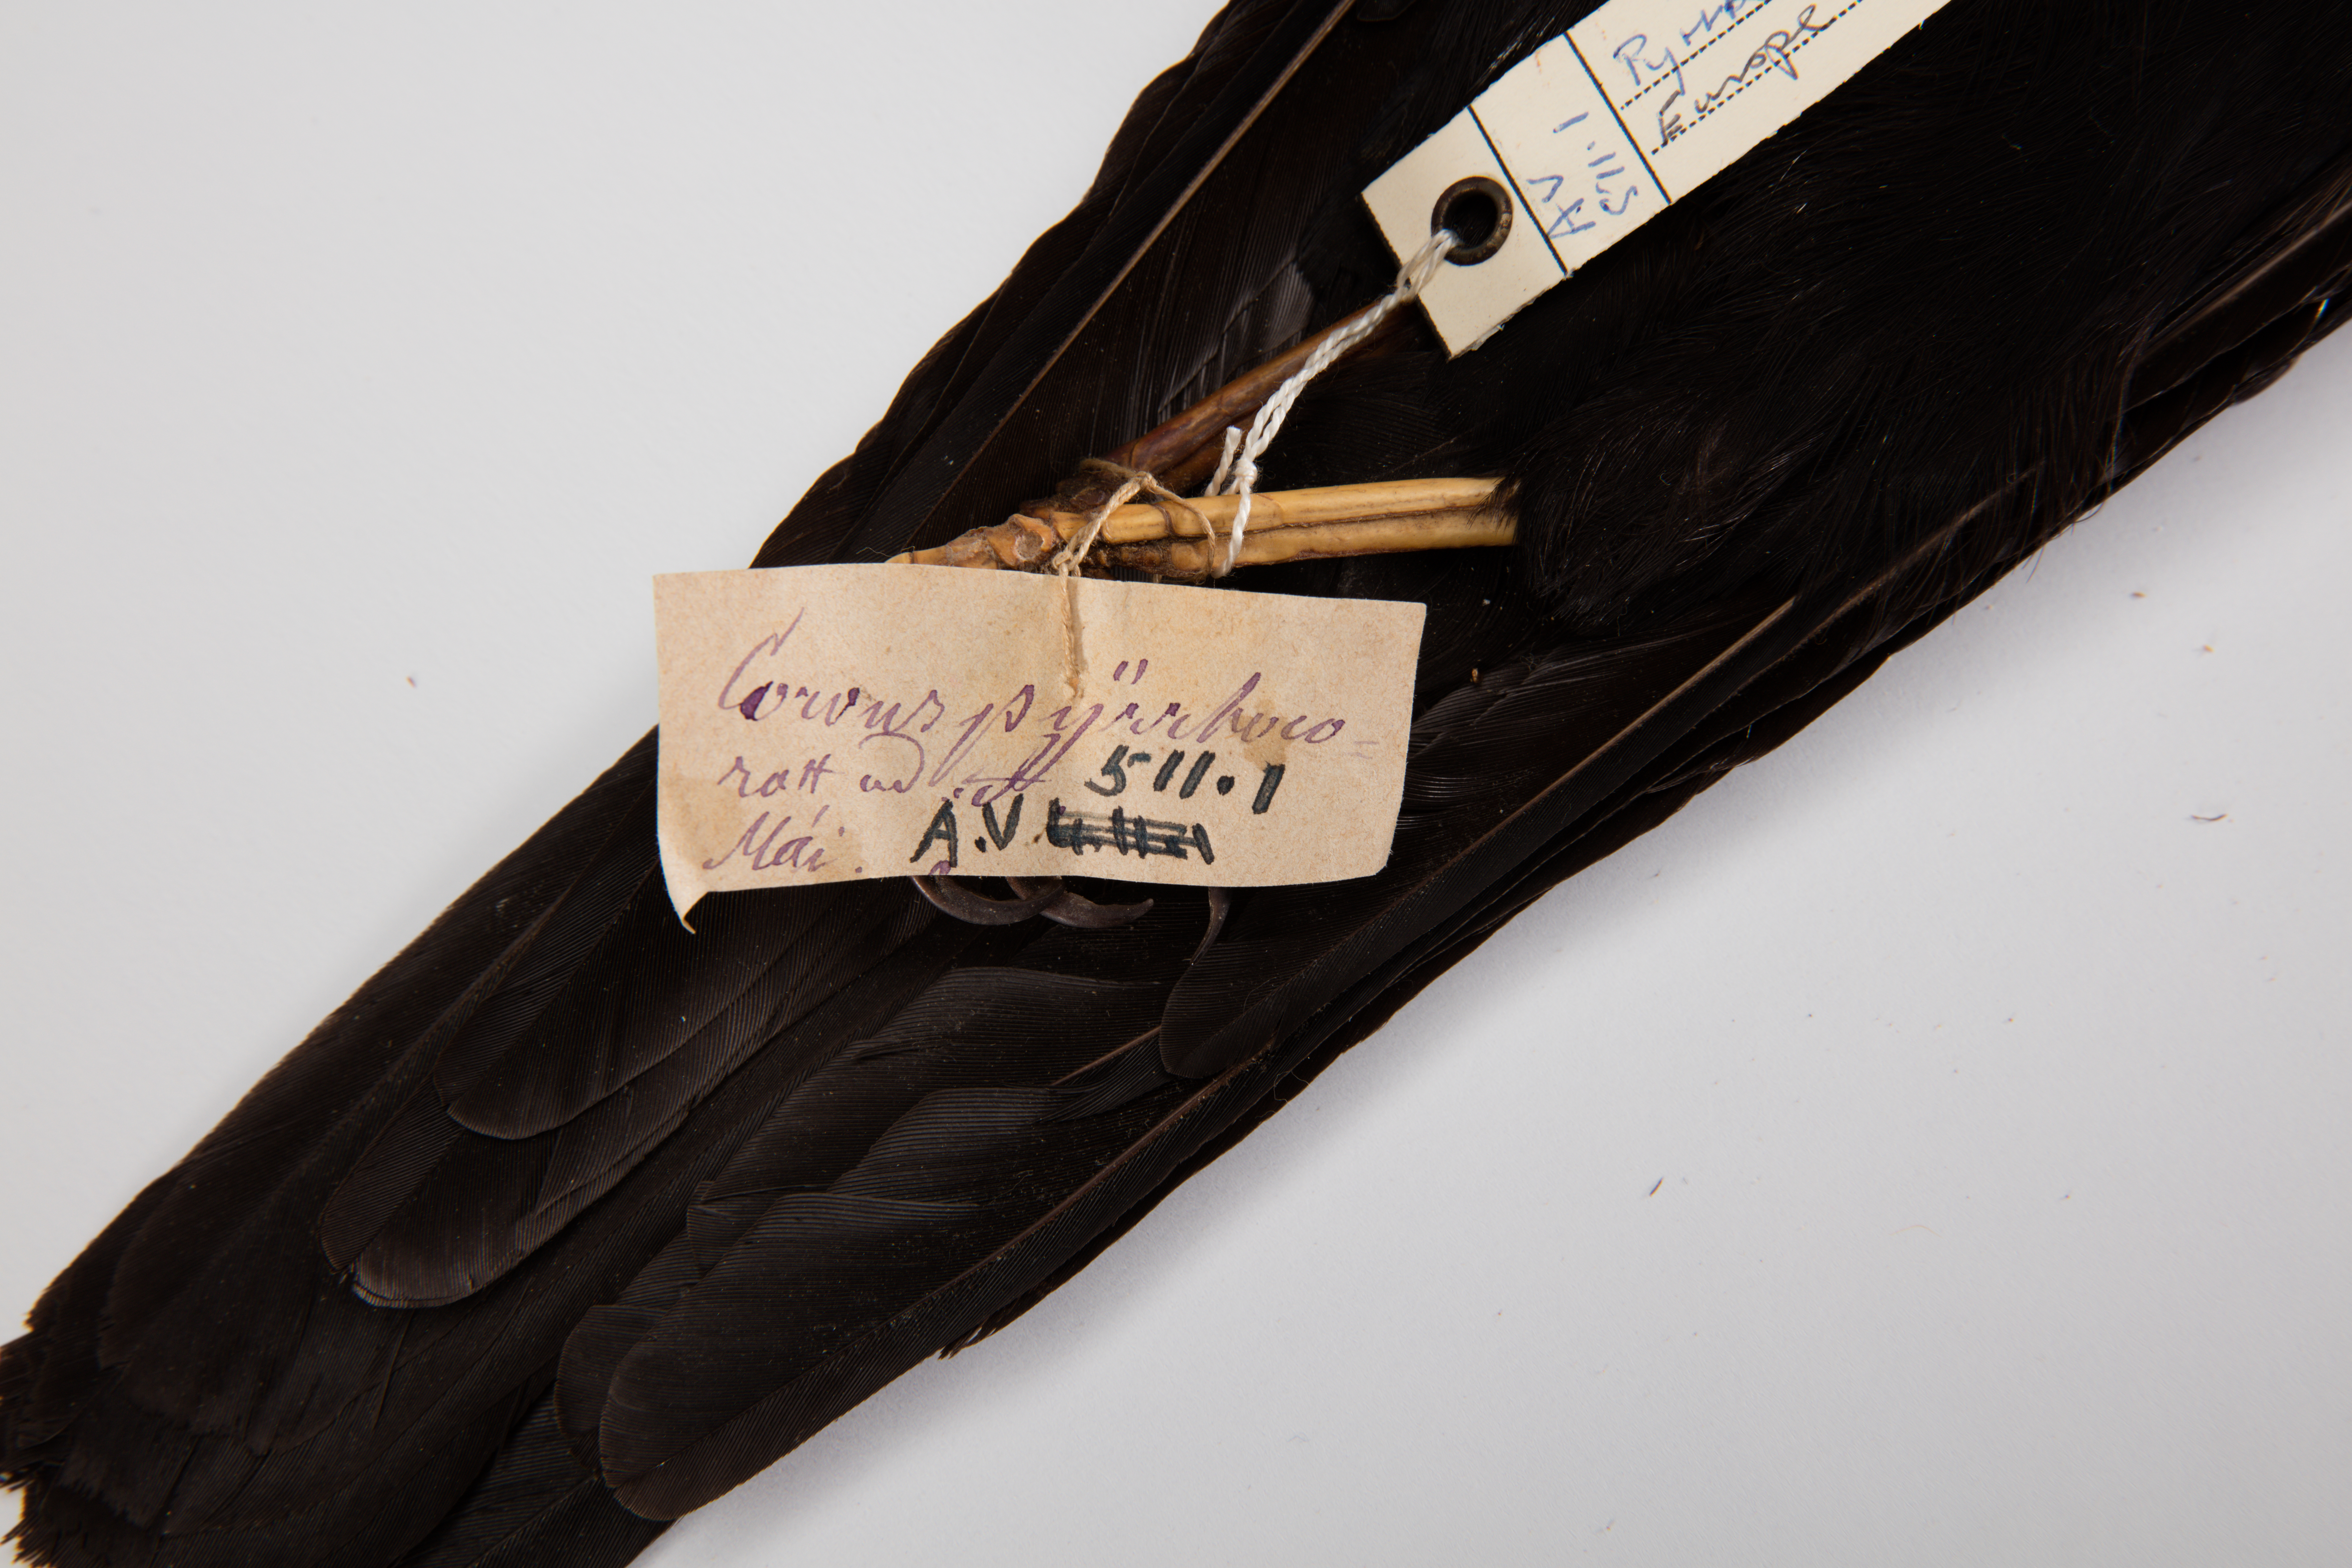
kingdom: Animalia
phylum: Chordata
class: Aves
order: Passeriformes
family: Corvidae
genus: Pyrrhocorax
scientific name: Pyrrhocorax graculus
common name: Alpine chough
